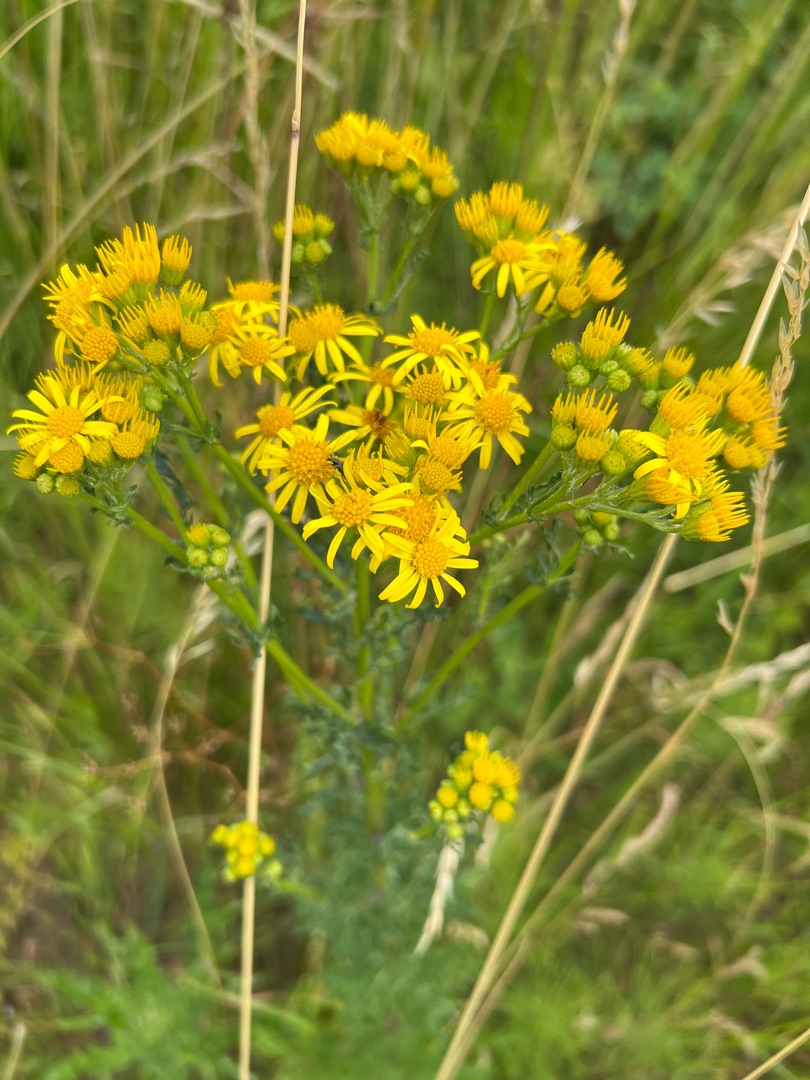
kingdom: Plantae
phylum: Tracheophyta
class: Magnoliopsida
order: Asterales
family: Asteraceae
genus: Jacobaea
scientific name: Jacobaea vulgaris
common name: Eng-brandbæger
